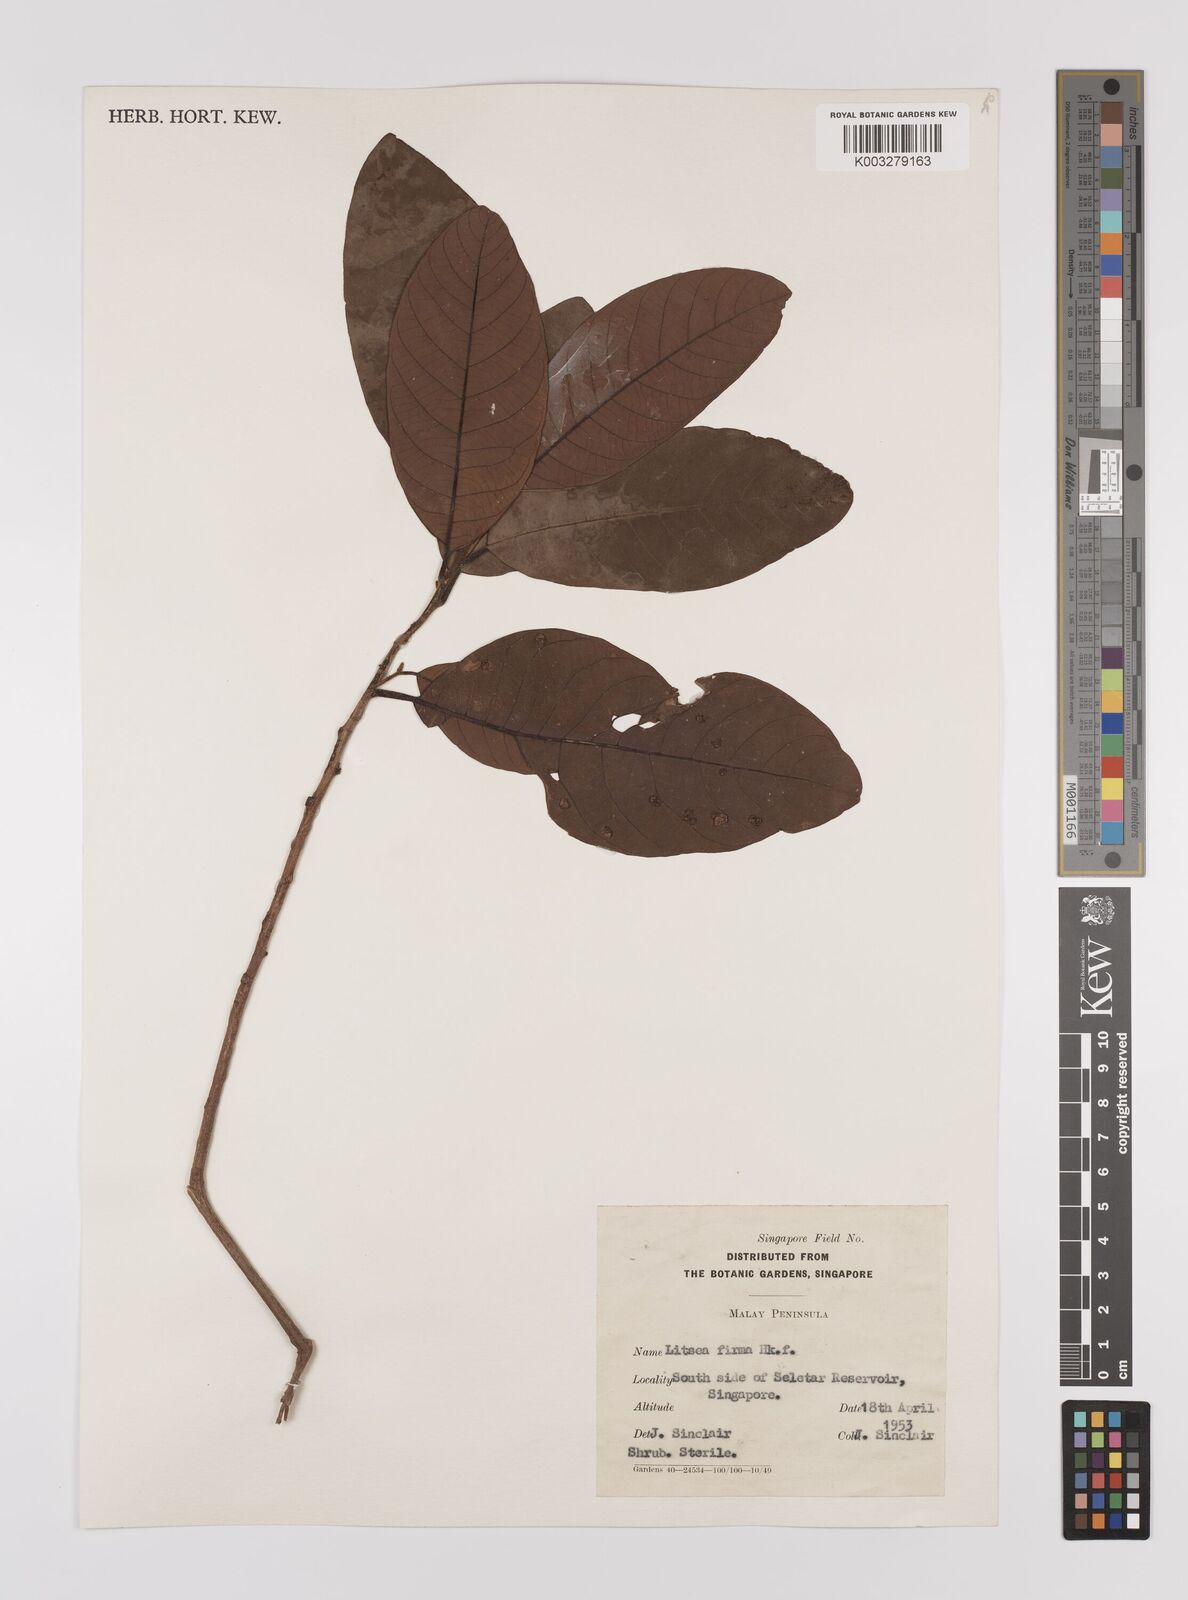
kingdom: Plantae
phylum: Tracheophyta
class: Magnoliopsida
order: Laurales
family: Lauraceae
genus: Litsea
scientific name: Litsea firma
